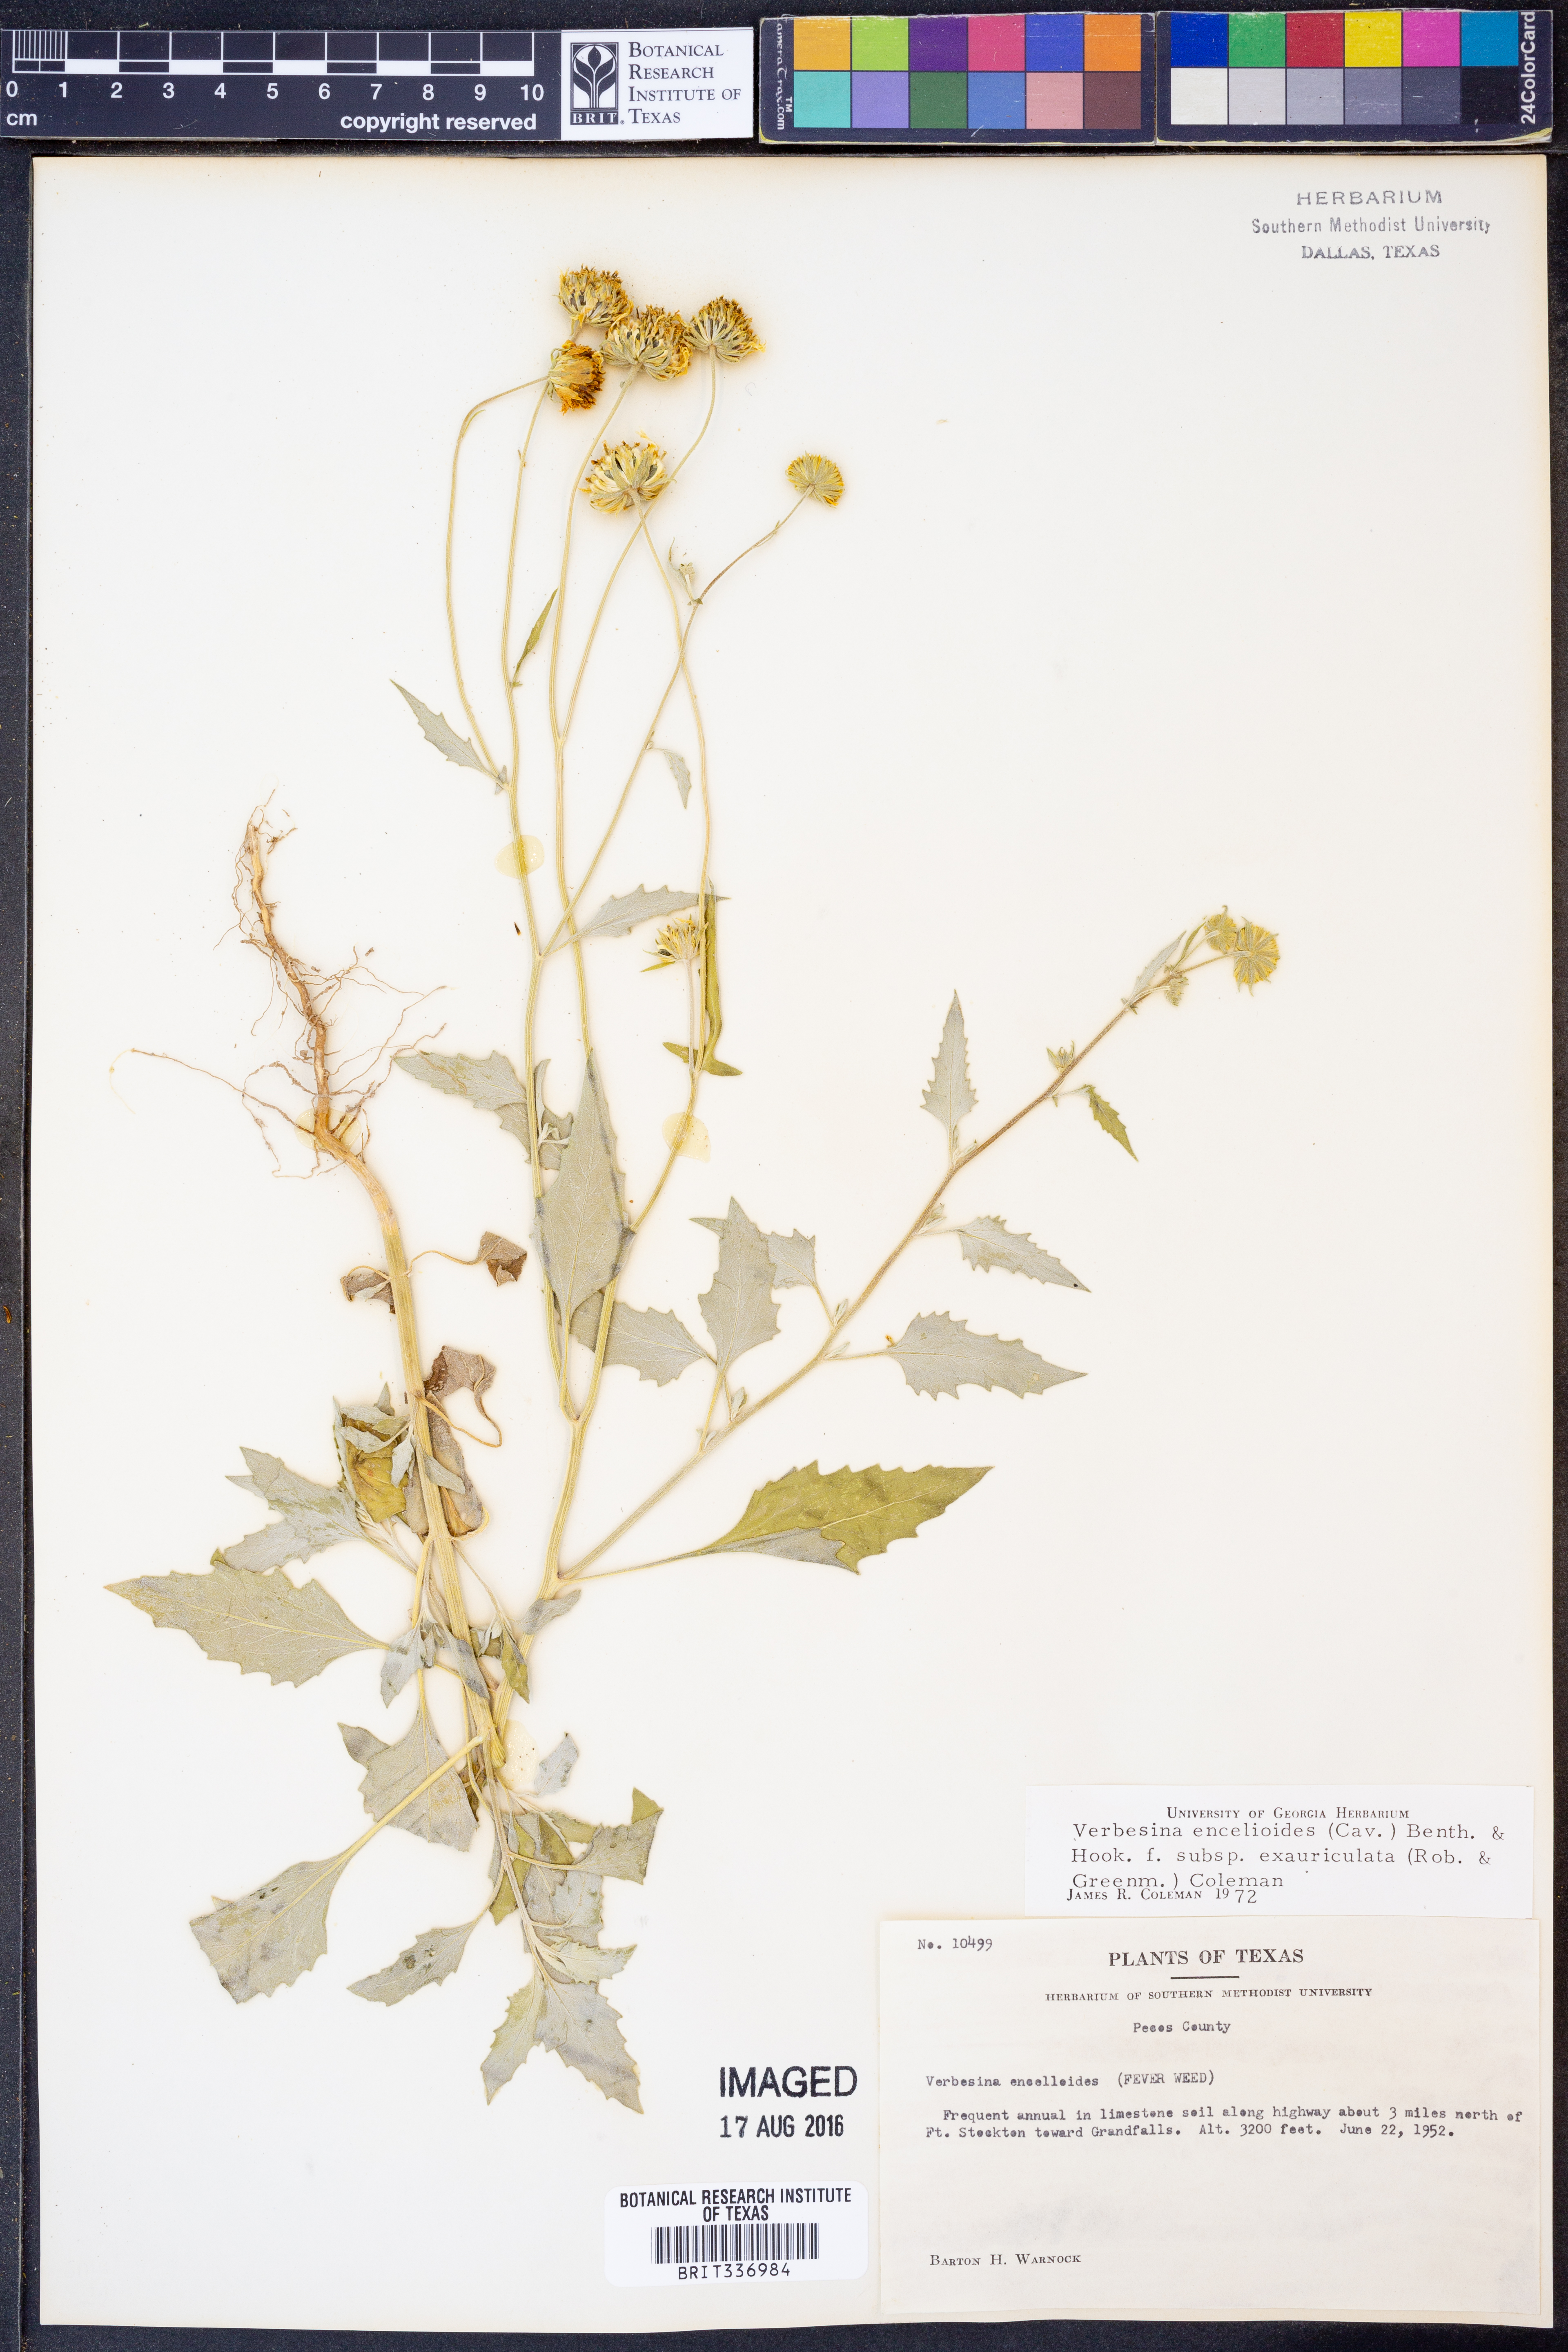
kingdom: Plantae
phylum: Tracheophyta
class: Magnoliopsida
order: Asterales
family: Asteraceae
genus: Verbesina
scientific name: Verbesina encelioides
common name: Golden crownbeard
